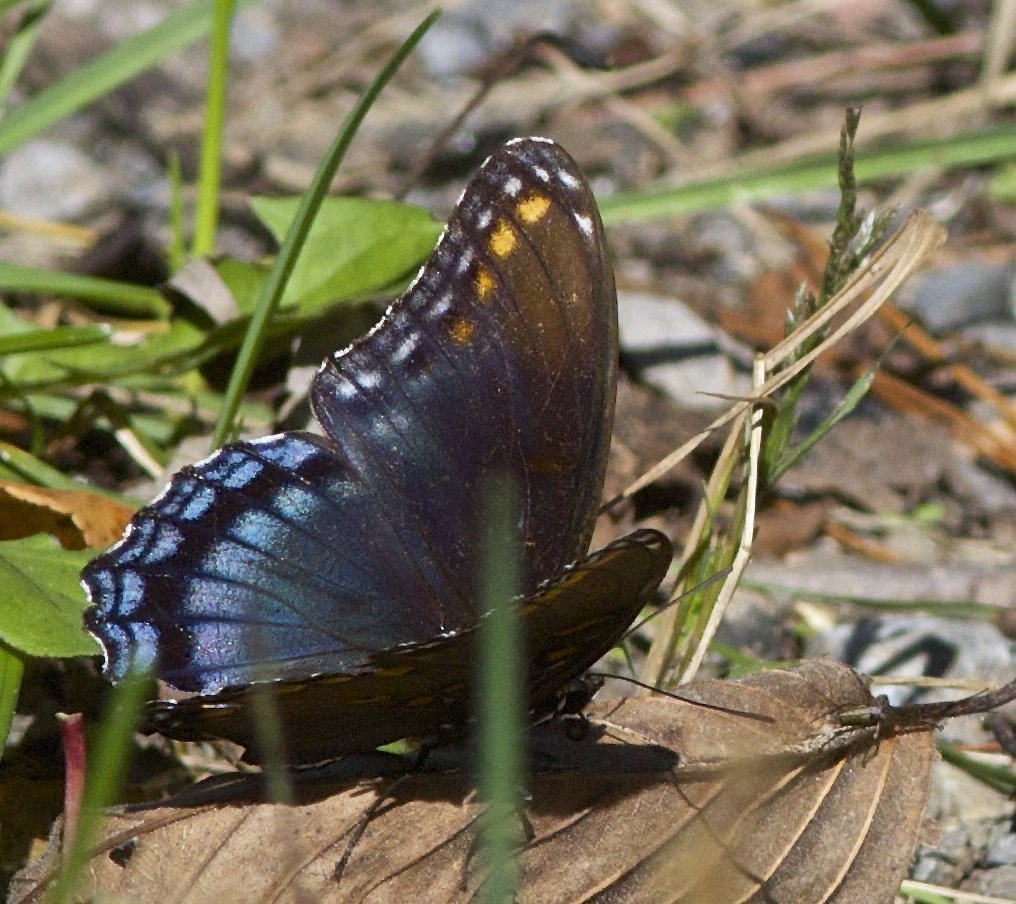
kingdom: Animalia
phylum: Arthropoda
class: Insecta
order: Lepidoptera
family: Nymphalidae
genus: Limenitis
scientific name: Limenitis astyanax
